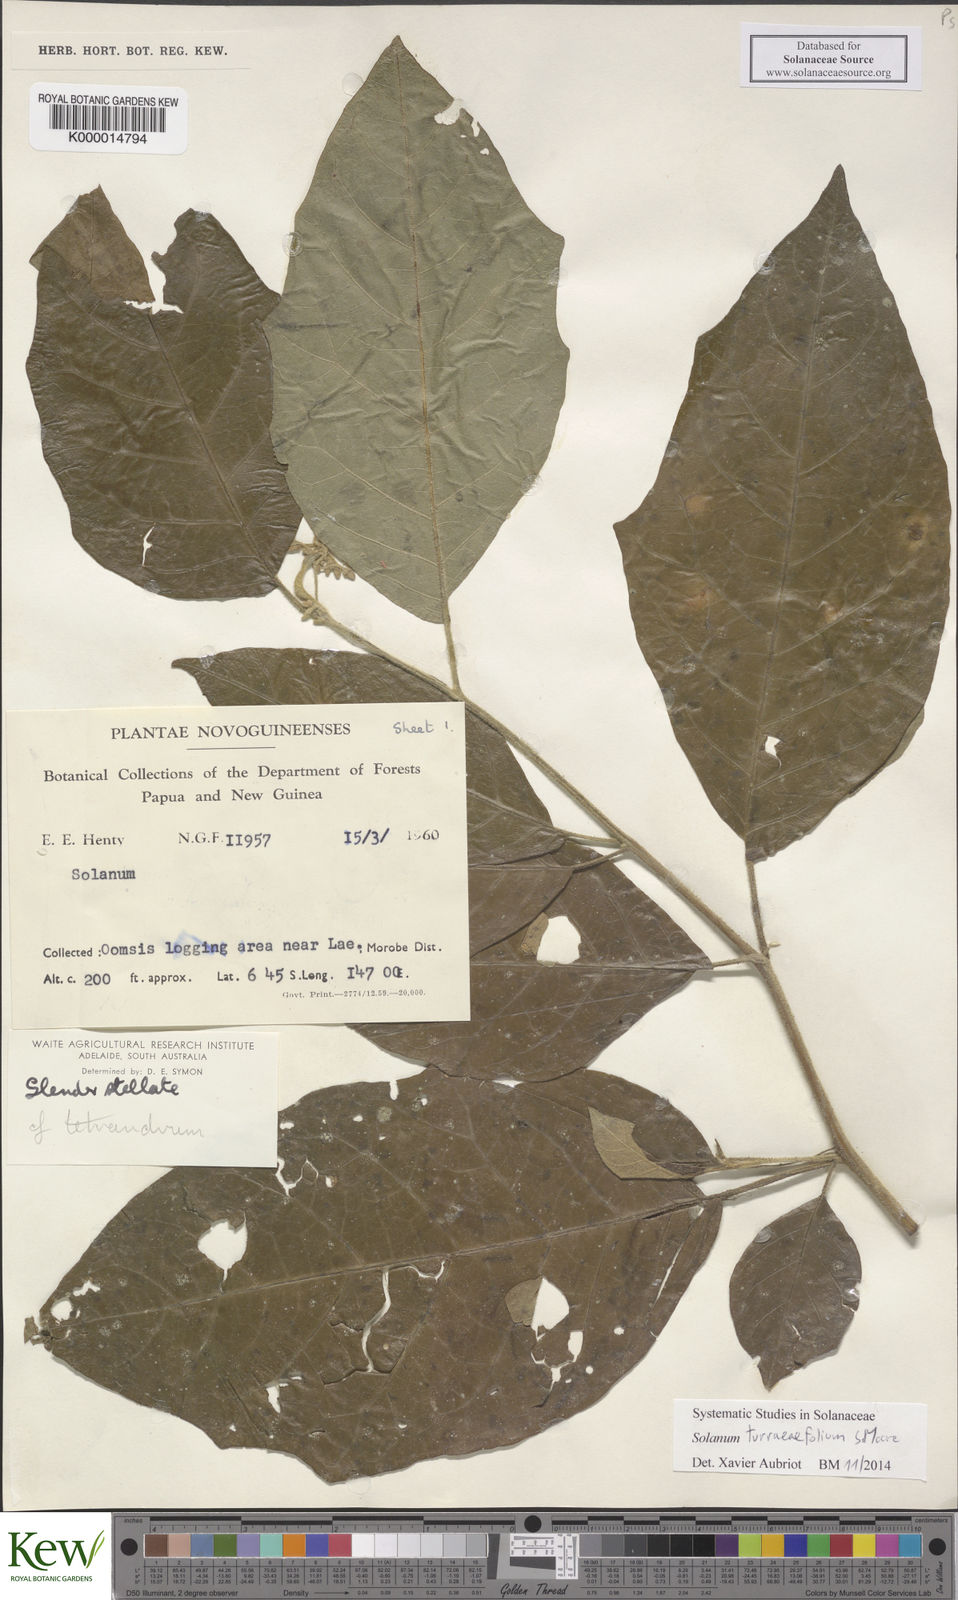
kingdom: Plantae
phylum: Tracheophyta
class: Magnoliopsida
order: Solanales
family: Solanaceae
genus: Solanum
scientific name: Solanum discolor
